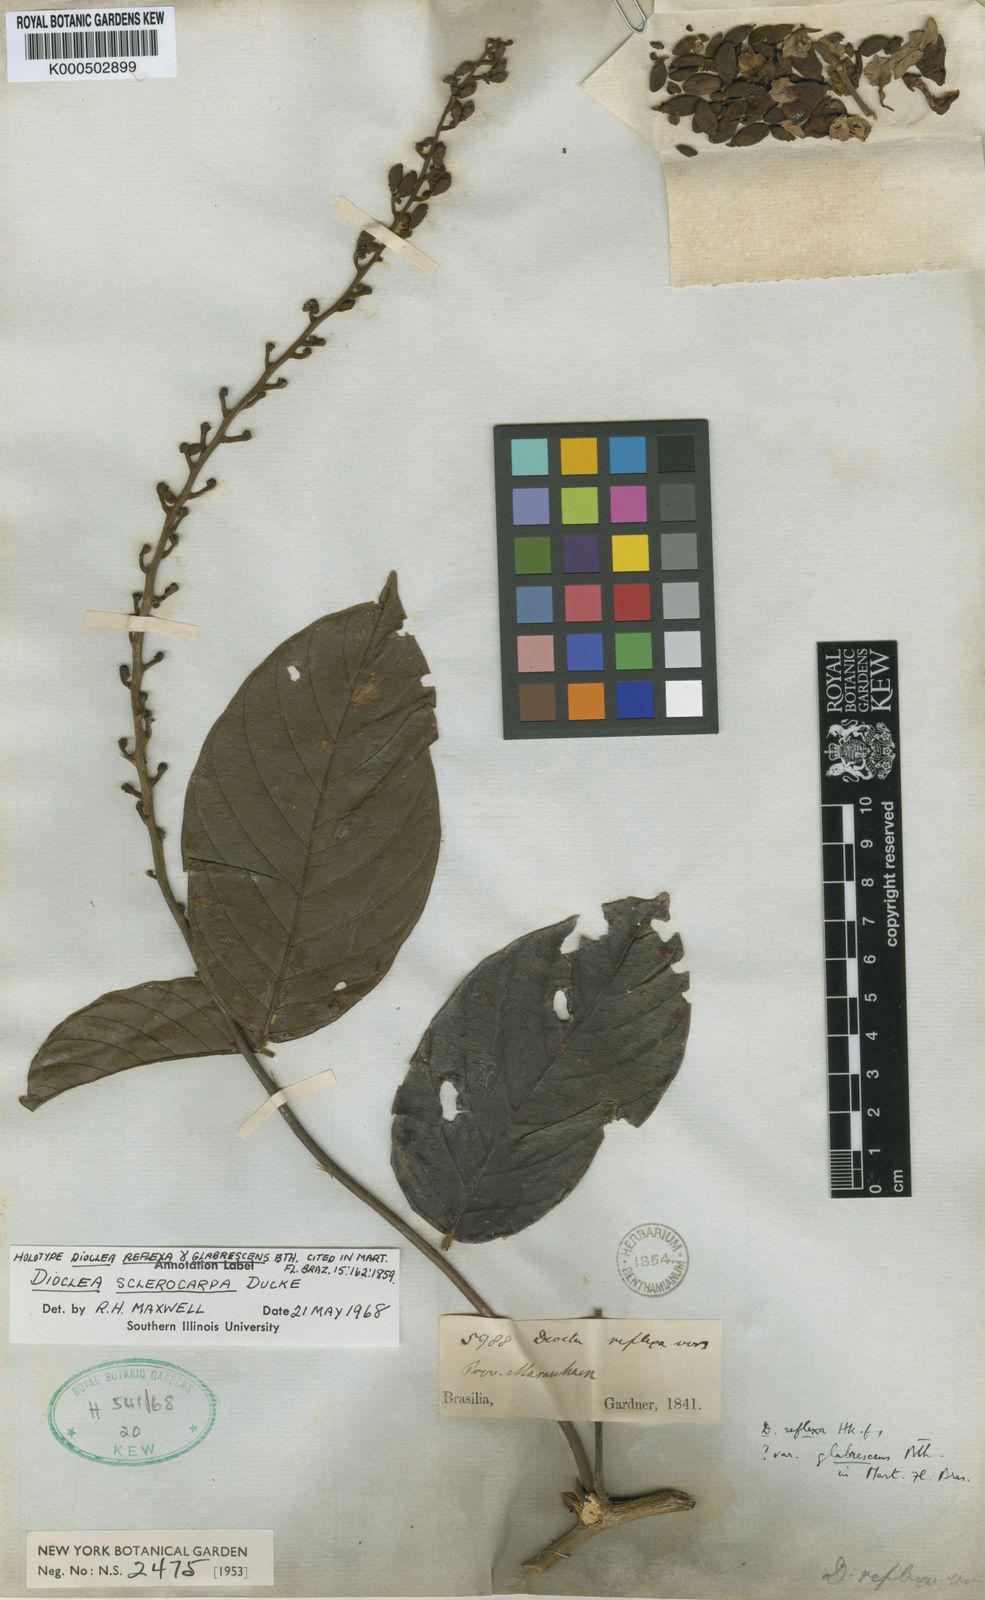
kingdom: Plantae
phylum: Tracheophyta
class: Magnoliopsida
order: Fabales
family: Fabaceae
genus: Macropsychanthus
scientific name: Macropsychanthus sclerocarpus
